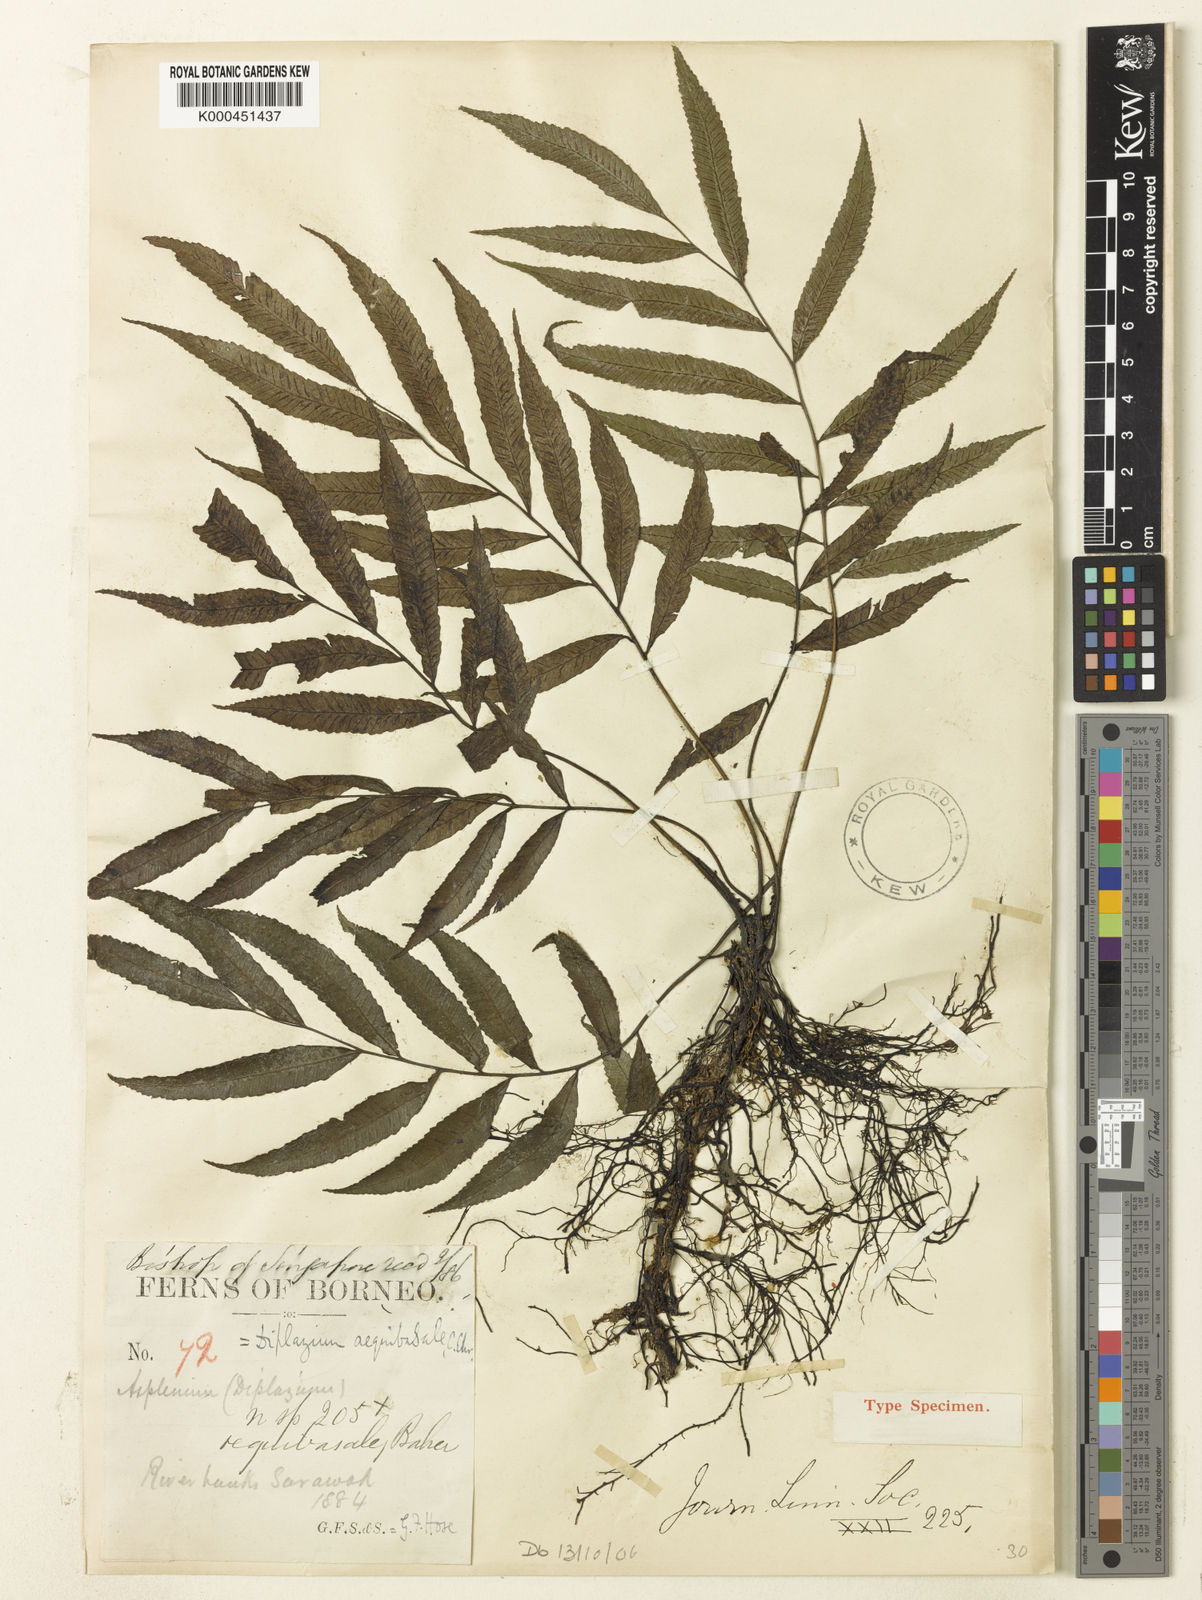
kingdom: Plantae
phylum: Tracheophyta
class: Polypodiopsida
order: Polypodiales
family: Athyriaceae
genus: Diplazium
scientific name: Diplazium aequibasale
